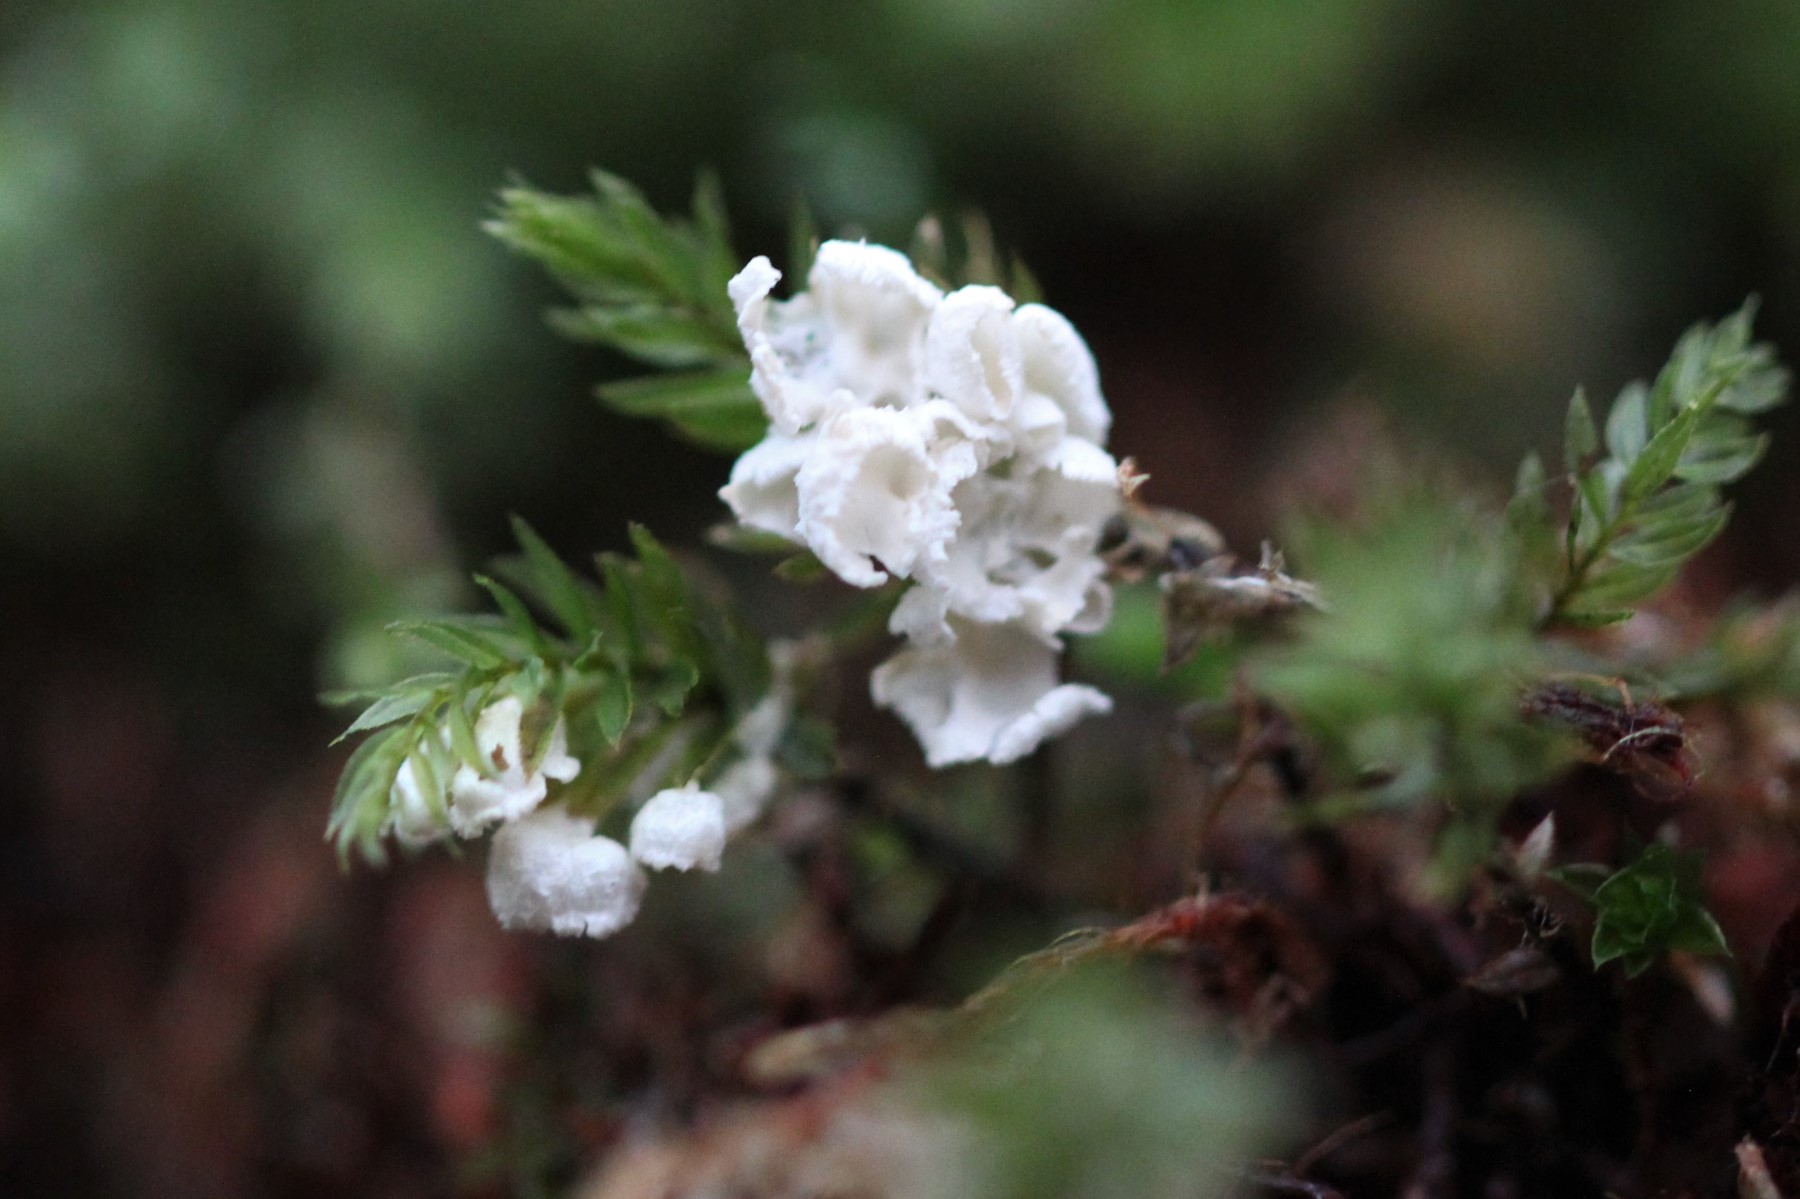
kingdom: Fungi
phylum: Basidiomycota
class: Agaricomycetes
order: Agaricales
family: Tricholomataceae
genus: Rimbachia
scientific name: Rimbachia arachnoidea
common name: Almindelig mosskål
